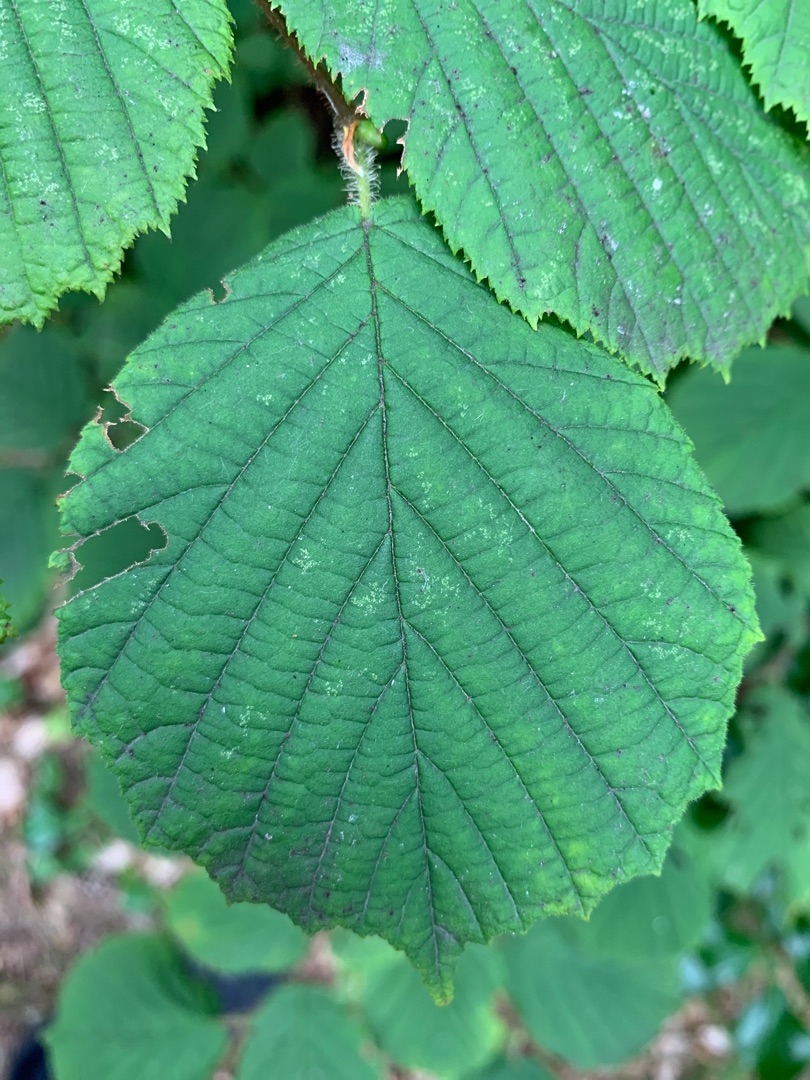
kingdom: Plantae
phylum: Tracheophyta
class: Magnoliopsida
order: Fagales
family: Betulaceae
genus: Corylus
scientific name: Corylus avellana
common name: Hassel
